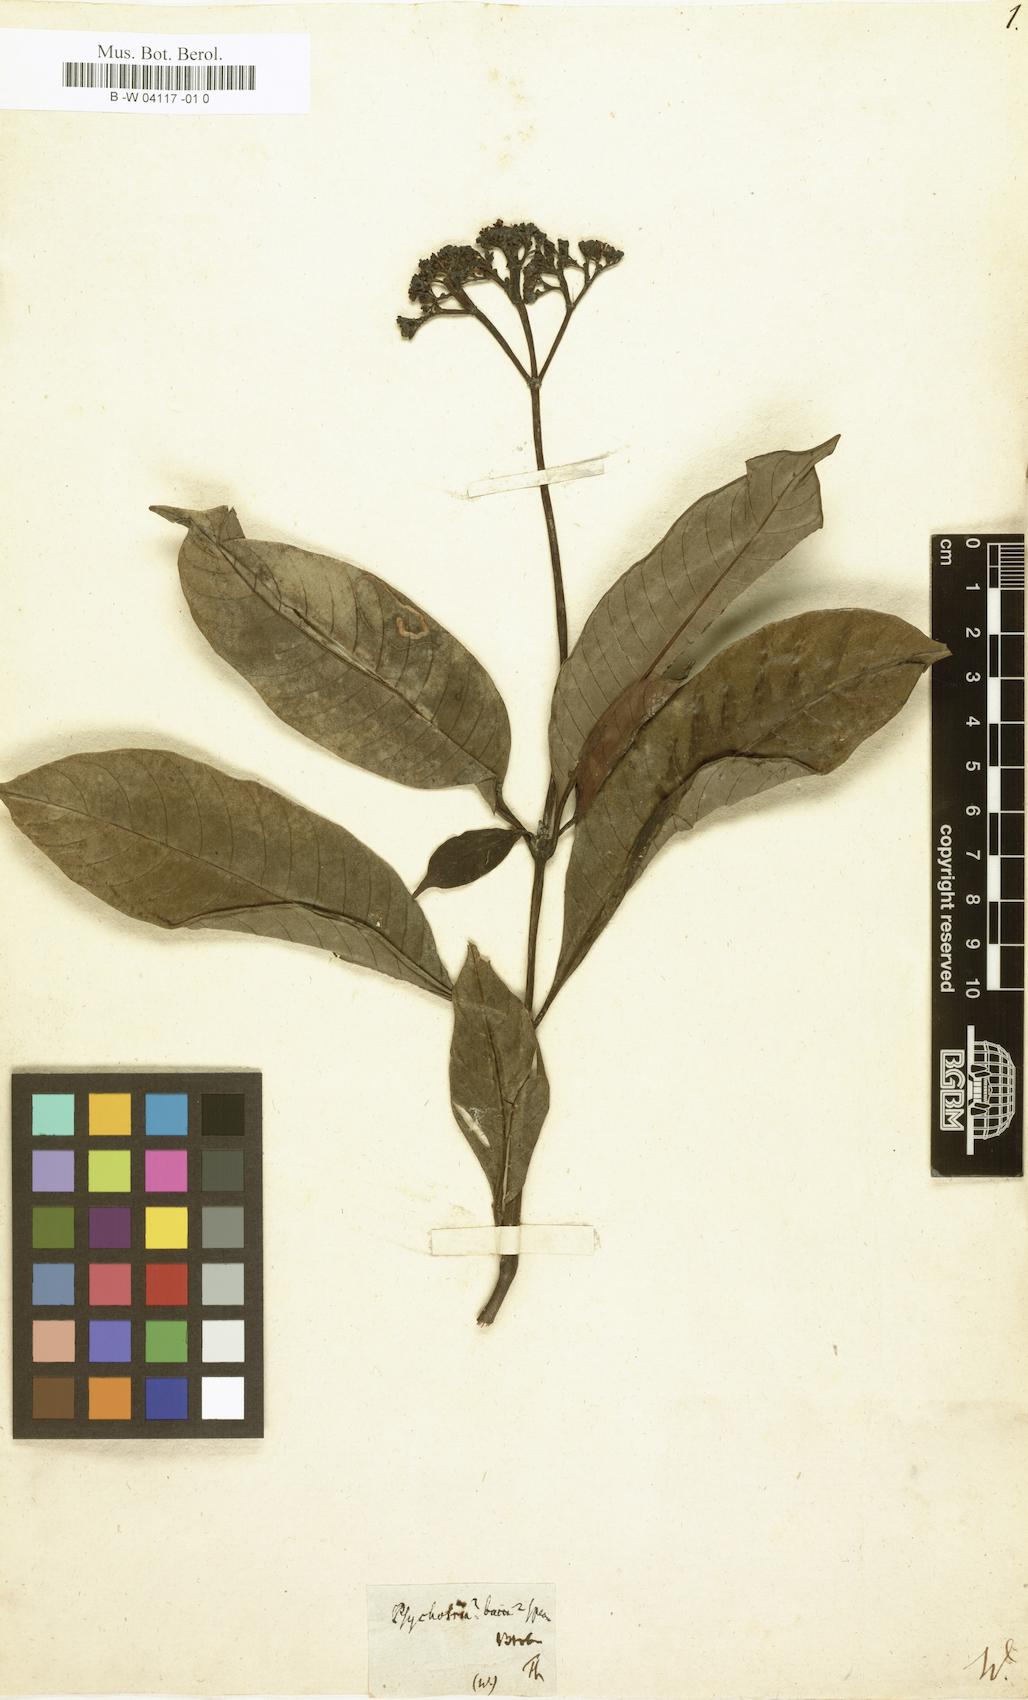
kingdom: Plantae
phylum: Tracheophyta
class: Magnoliopsida
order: Gentianales
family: Rubiaceae
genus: Chimarrhis
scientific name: Chimarrhis
